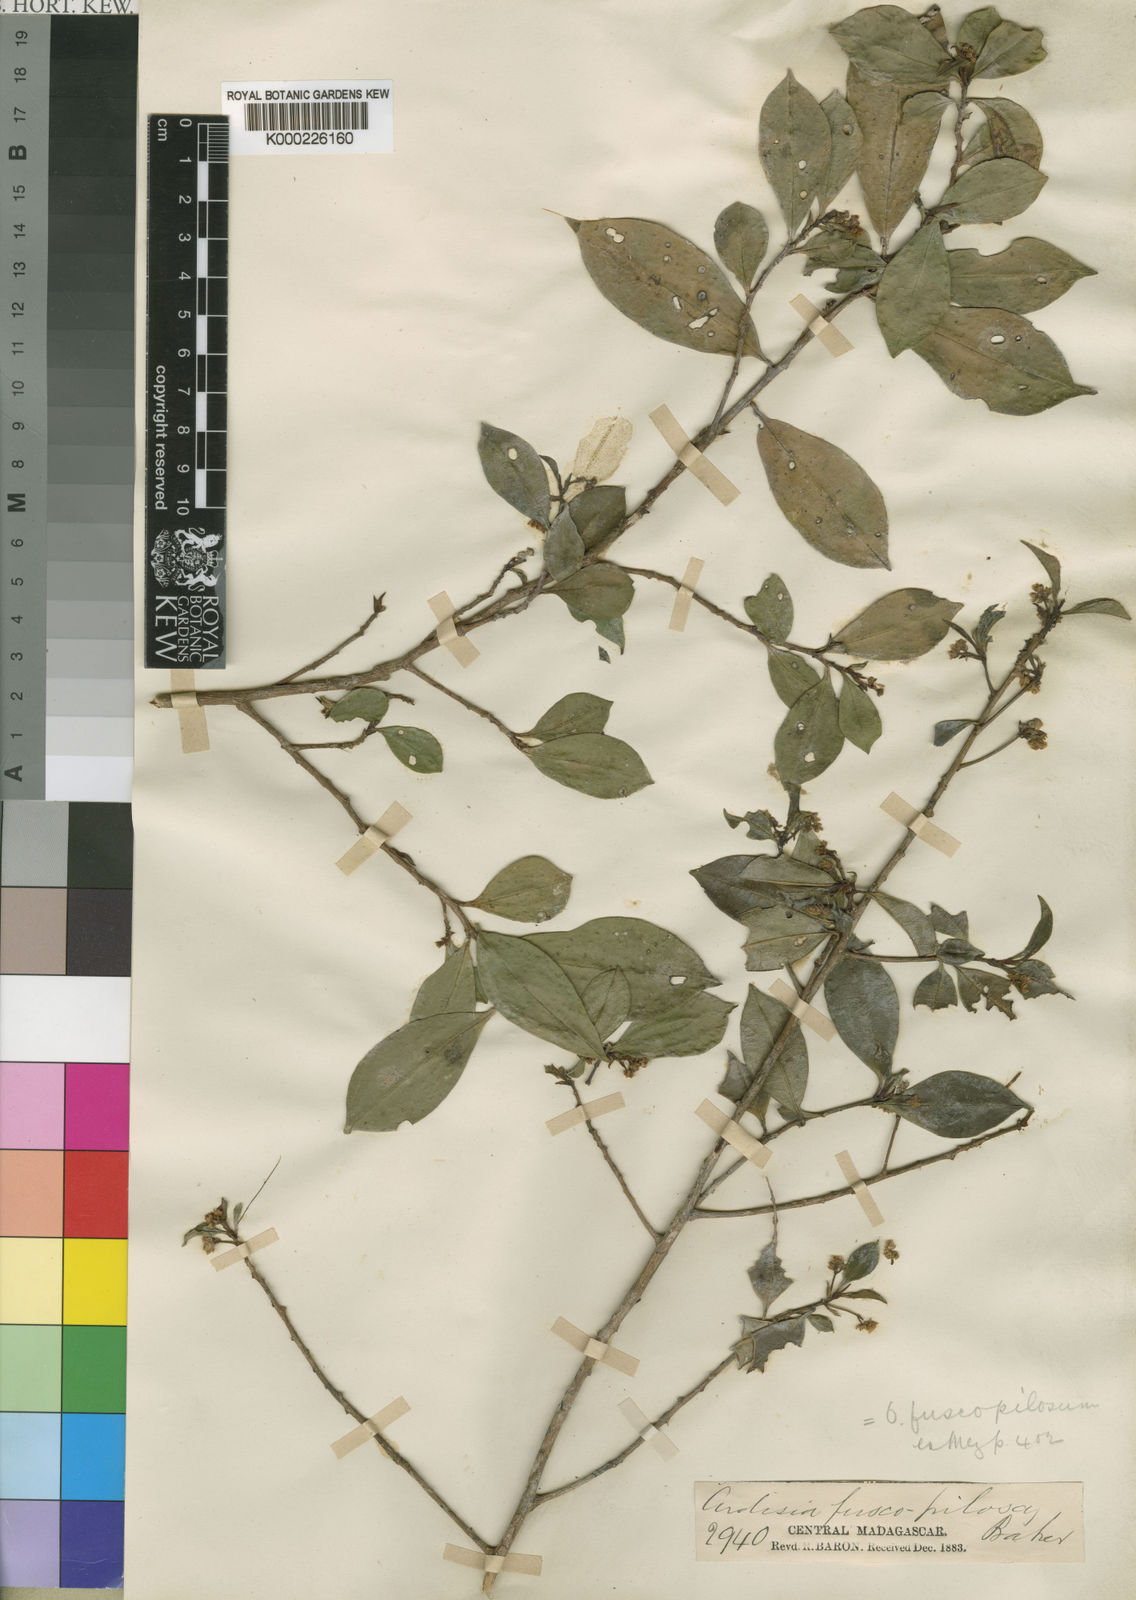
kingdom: Plantae
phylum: Tracheophyta
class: Magnoliopsida
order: Ericales
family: Primulaceae
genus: Oncostemum
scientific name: Oncostemum fuscopilosum
